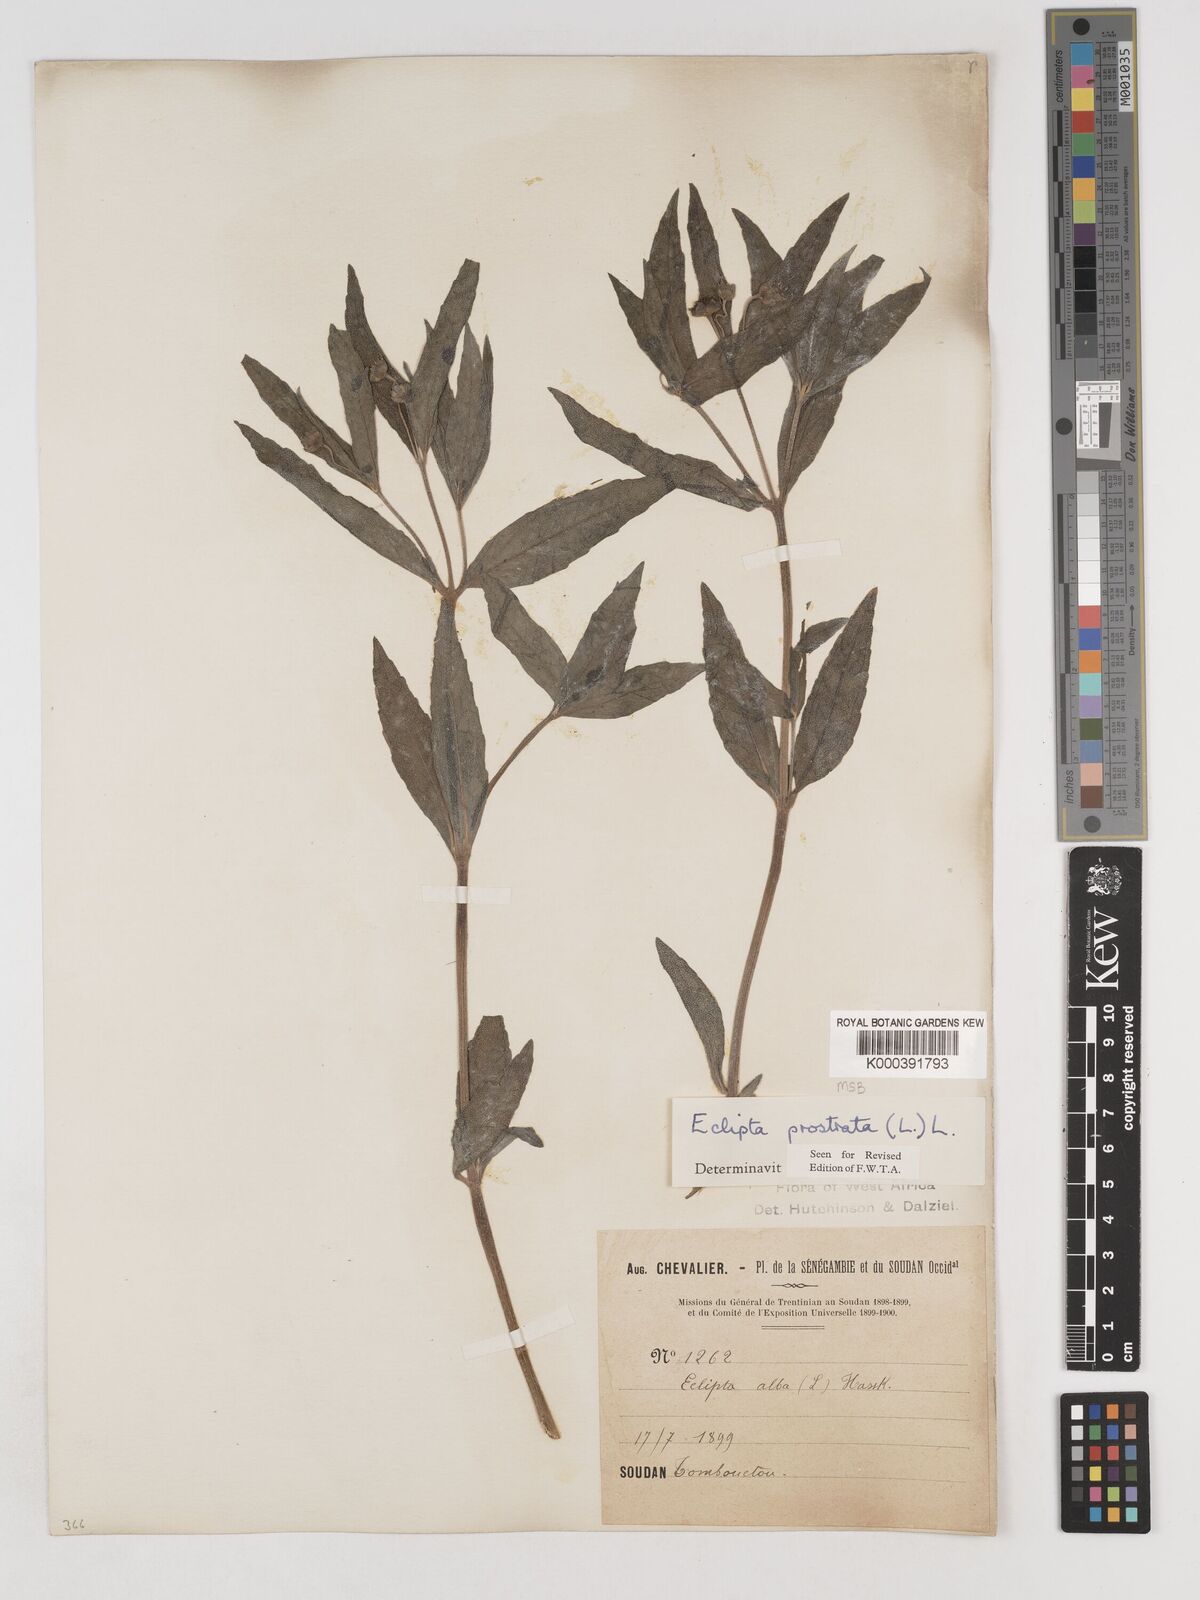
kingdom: Plantae
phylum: Tracheophyta
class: Magnoliopsida
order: Asterales
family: Asteraceae
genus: Eclipta
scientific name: Eclipta prostrata
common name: False daisy
